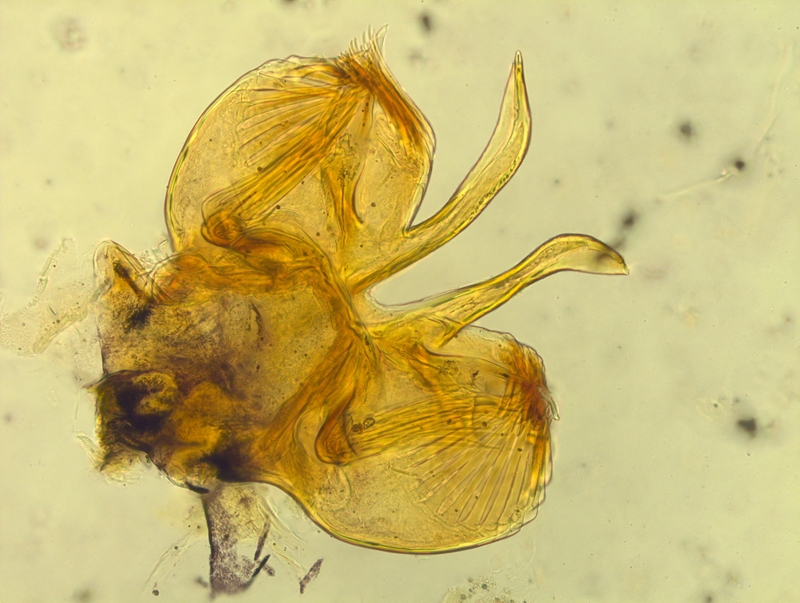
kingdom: Animalia
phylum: Arthropoda
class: Diplopoda
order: Chordeumatida
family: Craspedosomatidae
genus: Prionosoma
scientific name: Prionosoma canestrinii
